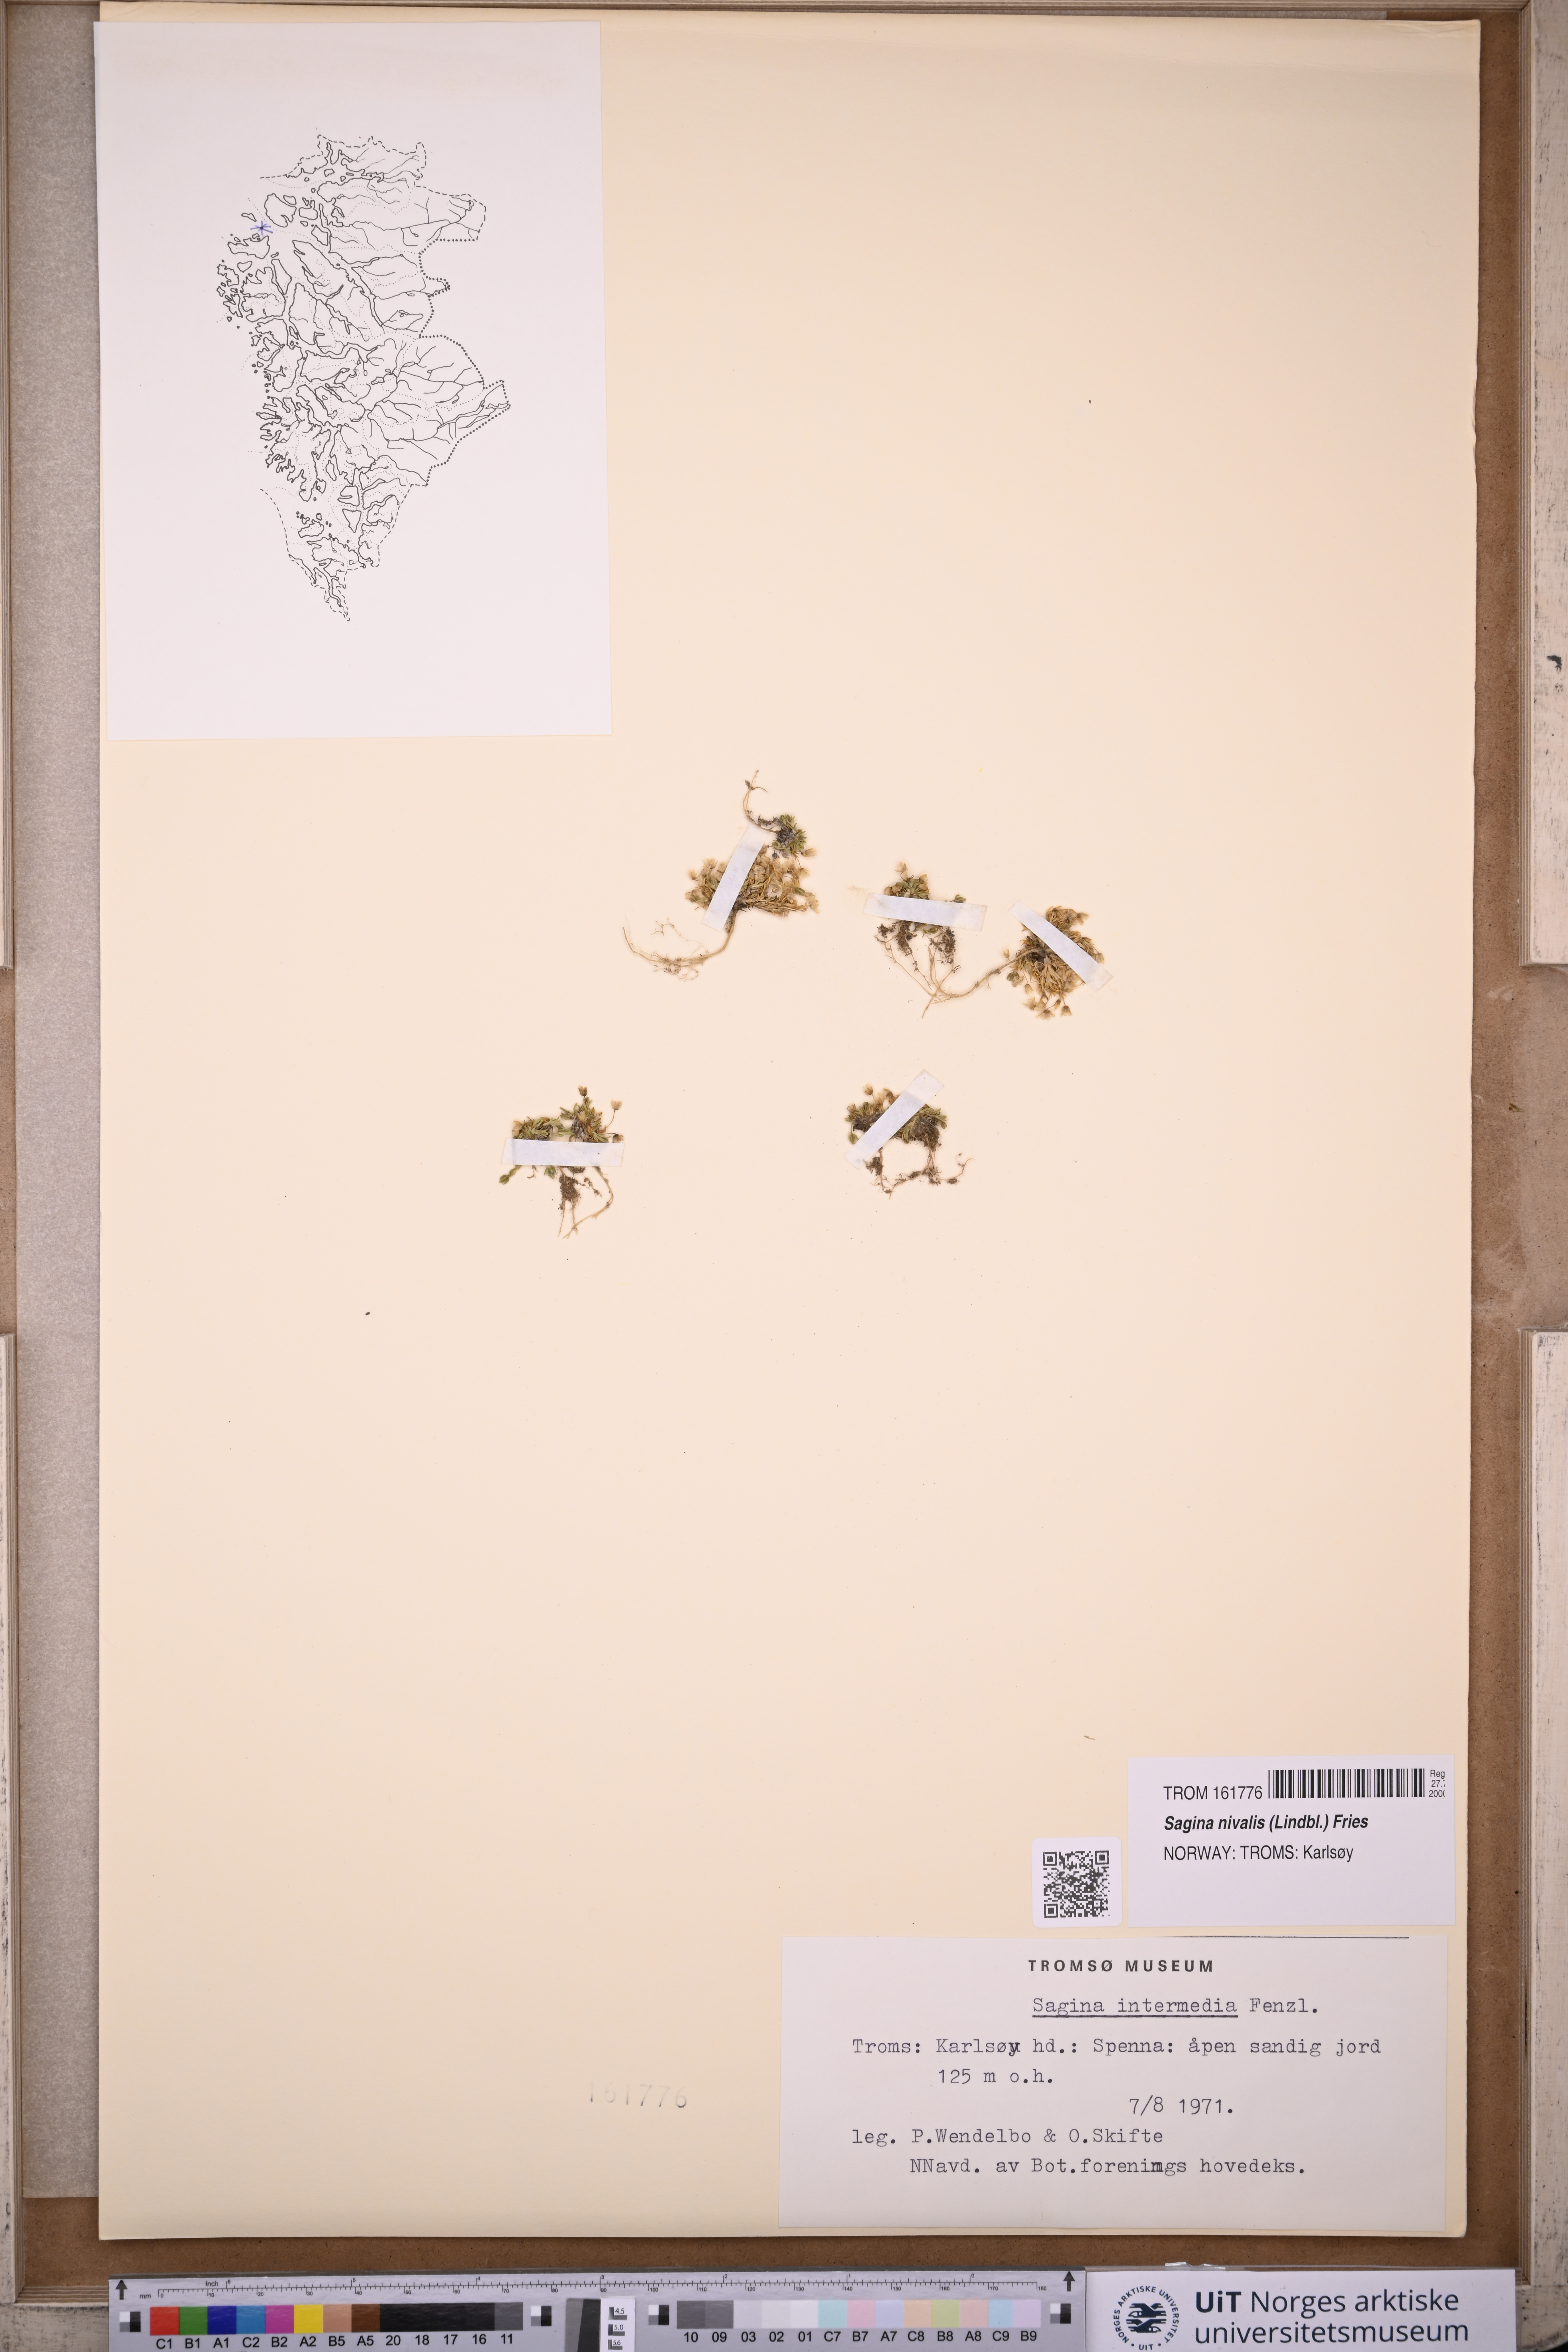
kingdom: Plantae
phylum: Tracheophyta
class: Magnoliopsida
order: Caryophyllales
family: Caryophyllaceae
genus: Sagina
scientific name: Sagina nivalis
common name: Snow pearlwort
